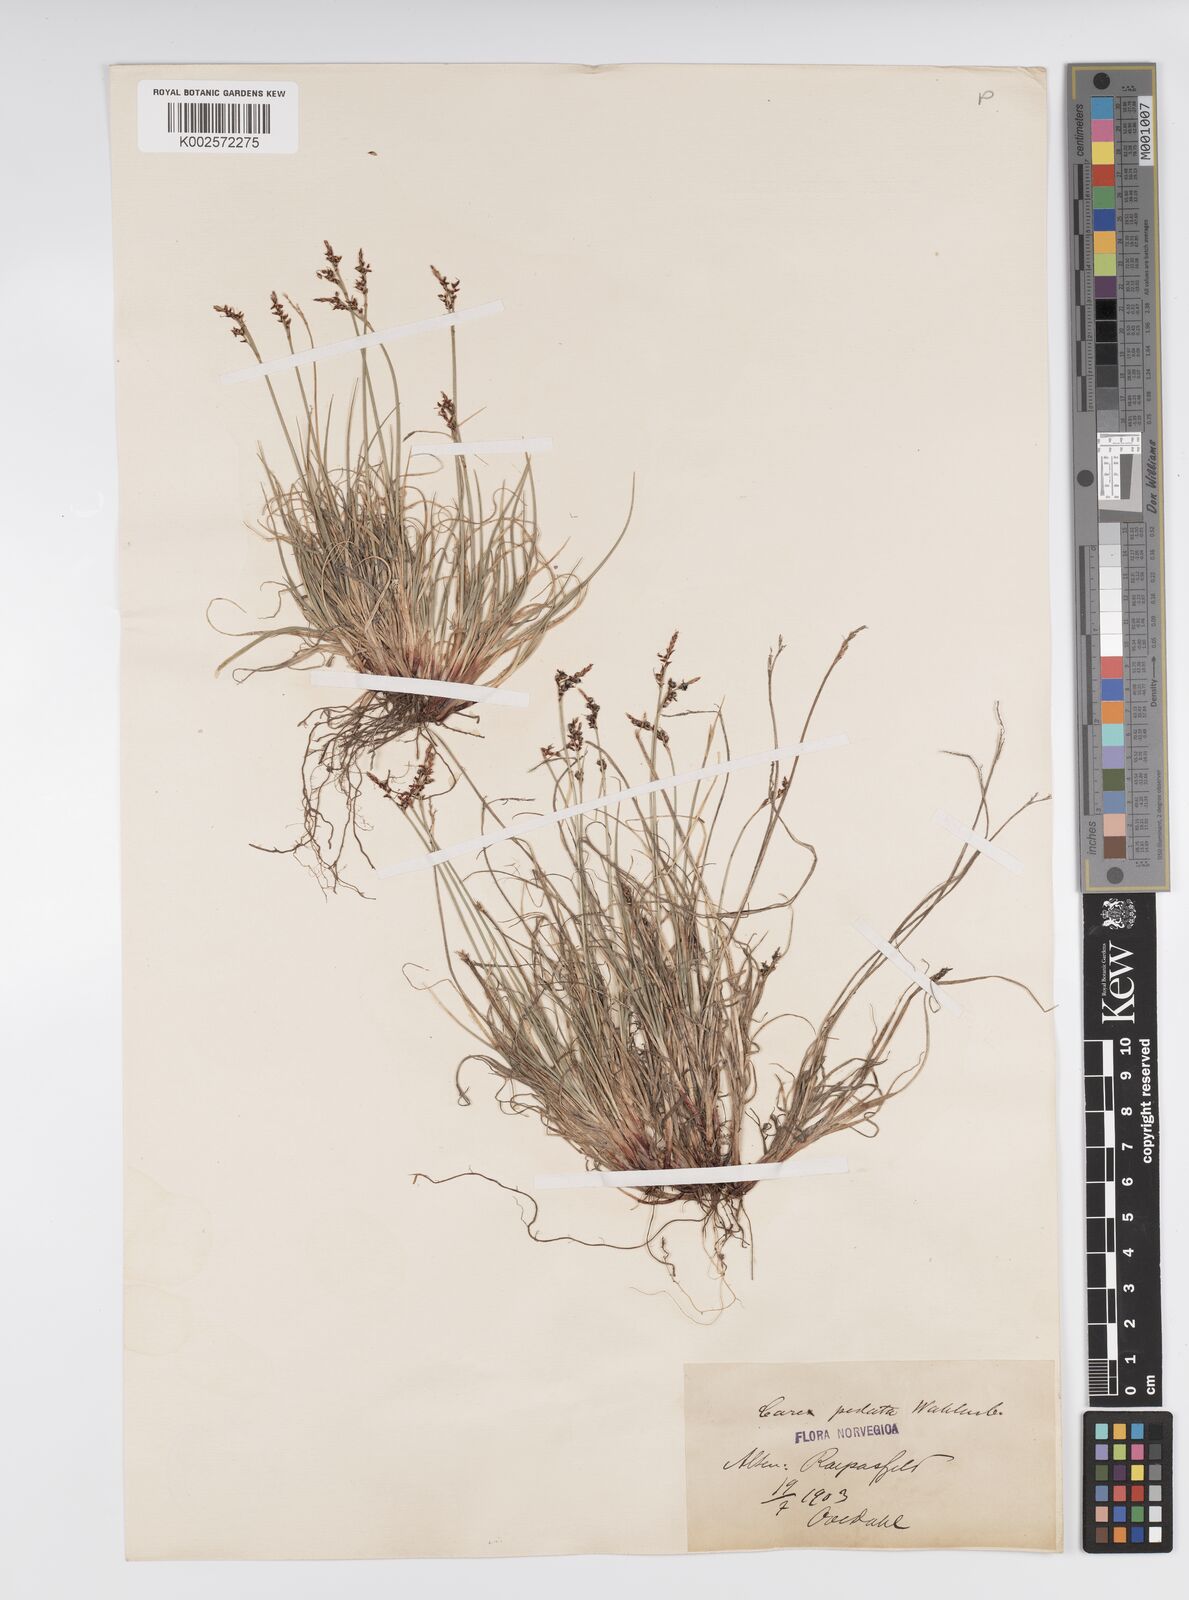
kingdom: Plantae
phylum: Tracheophyta
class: Liliopsida
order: Poales
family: Cyperaceae
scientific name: Cyperaceae
